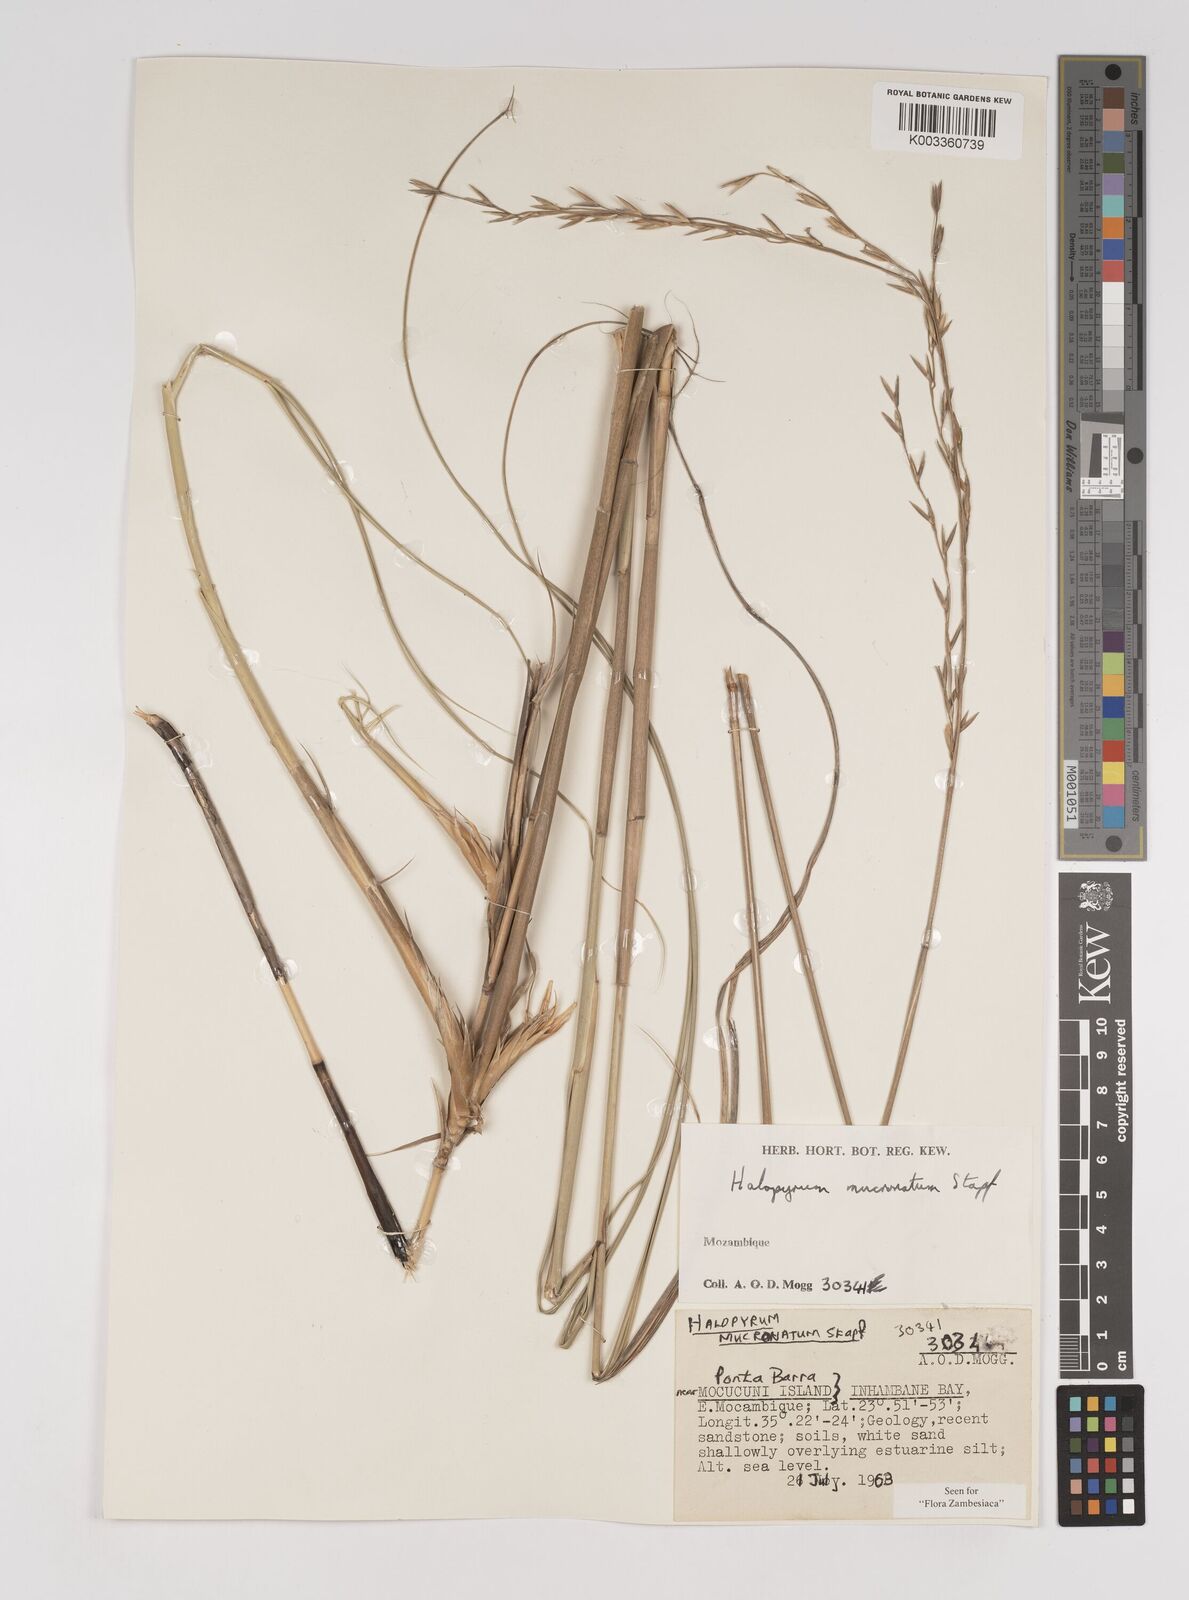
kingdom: Plantae
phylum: Tracheophyta
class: Liliopsida
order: Poales
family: Poaceae
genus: Halopyrum
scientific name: Halopyrum mucronatum
